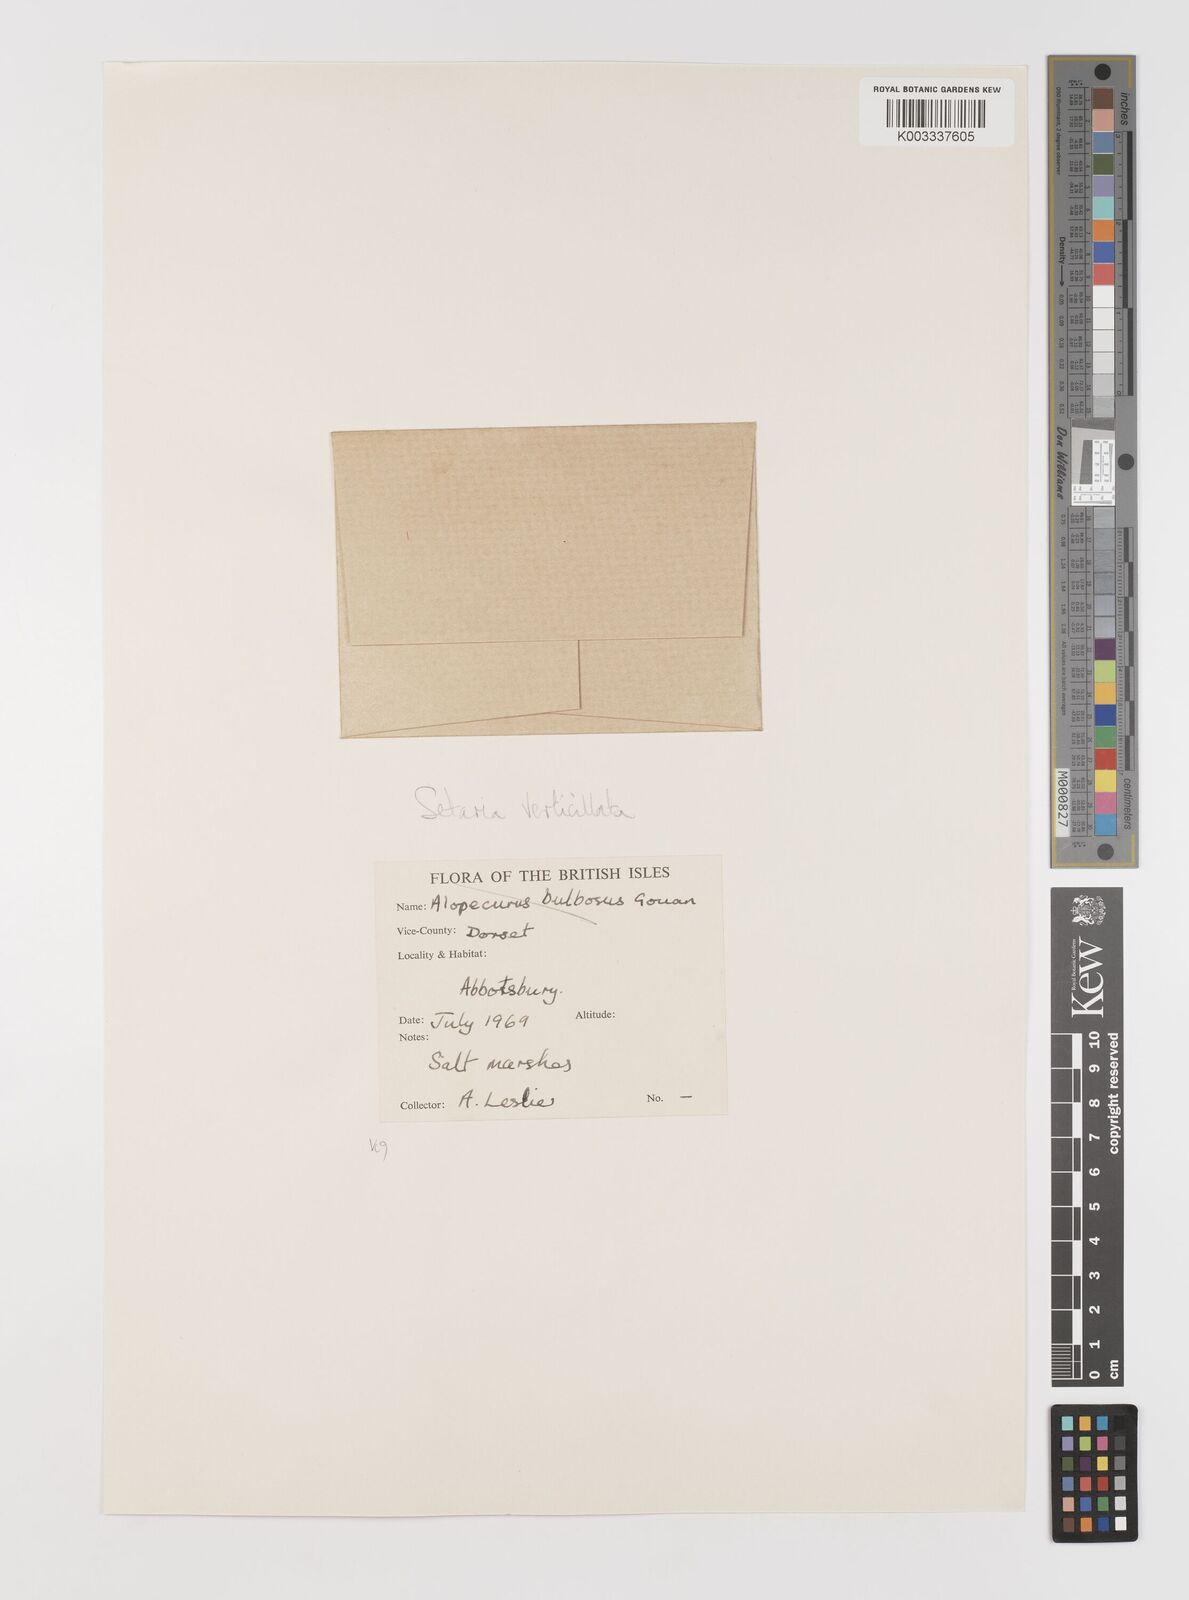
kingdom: Plantae
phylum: Tracheophyta
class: Liliopsida
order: Poales
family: Poaceae
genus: Setaria
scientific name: Setaria verticillata
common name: Hooked bristlegrass
